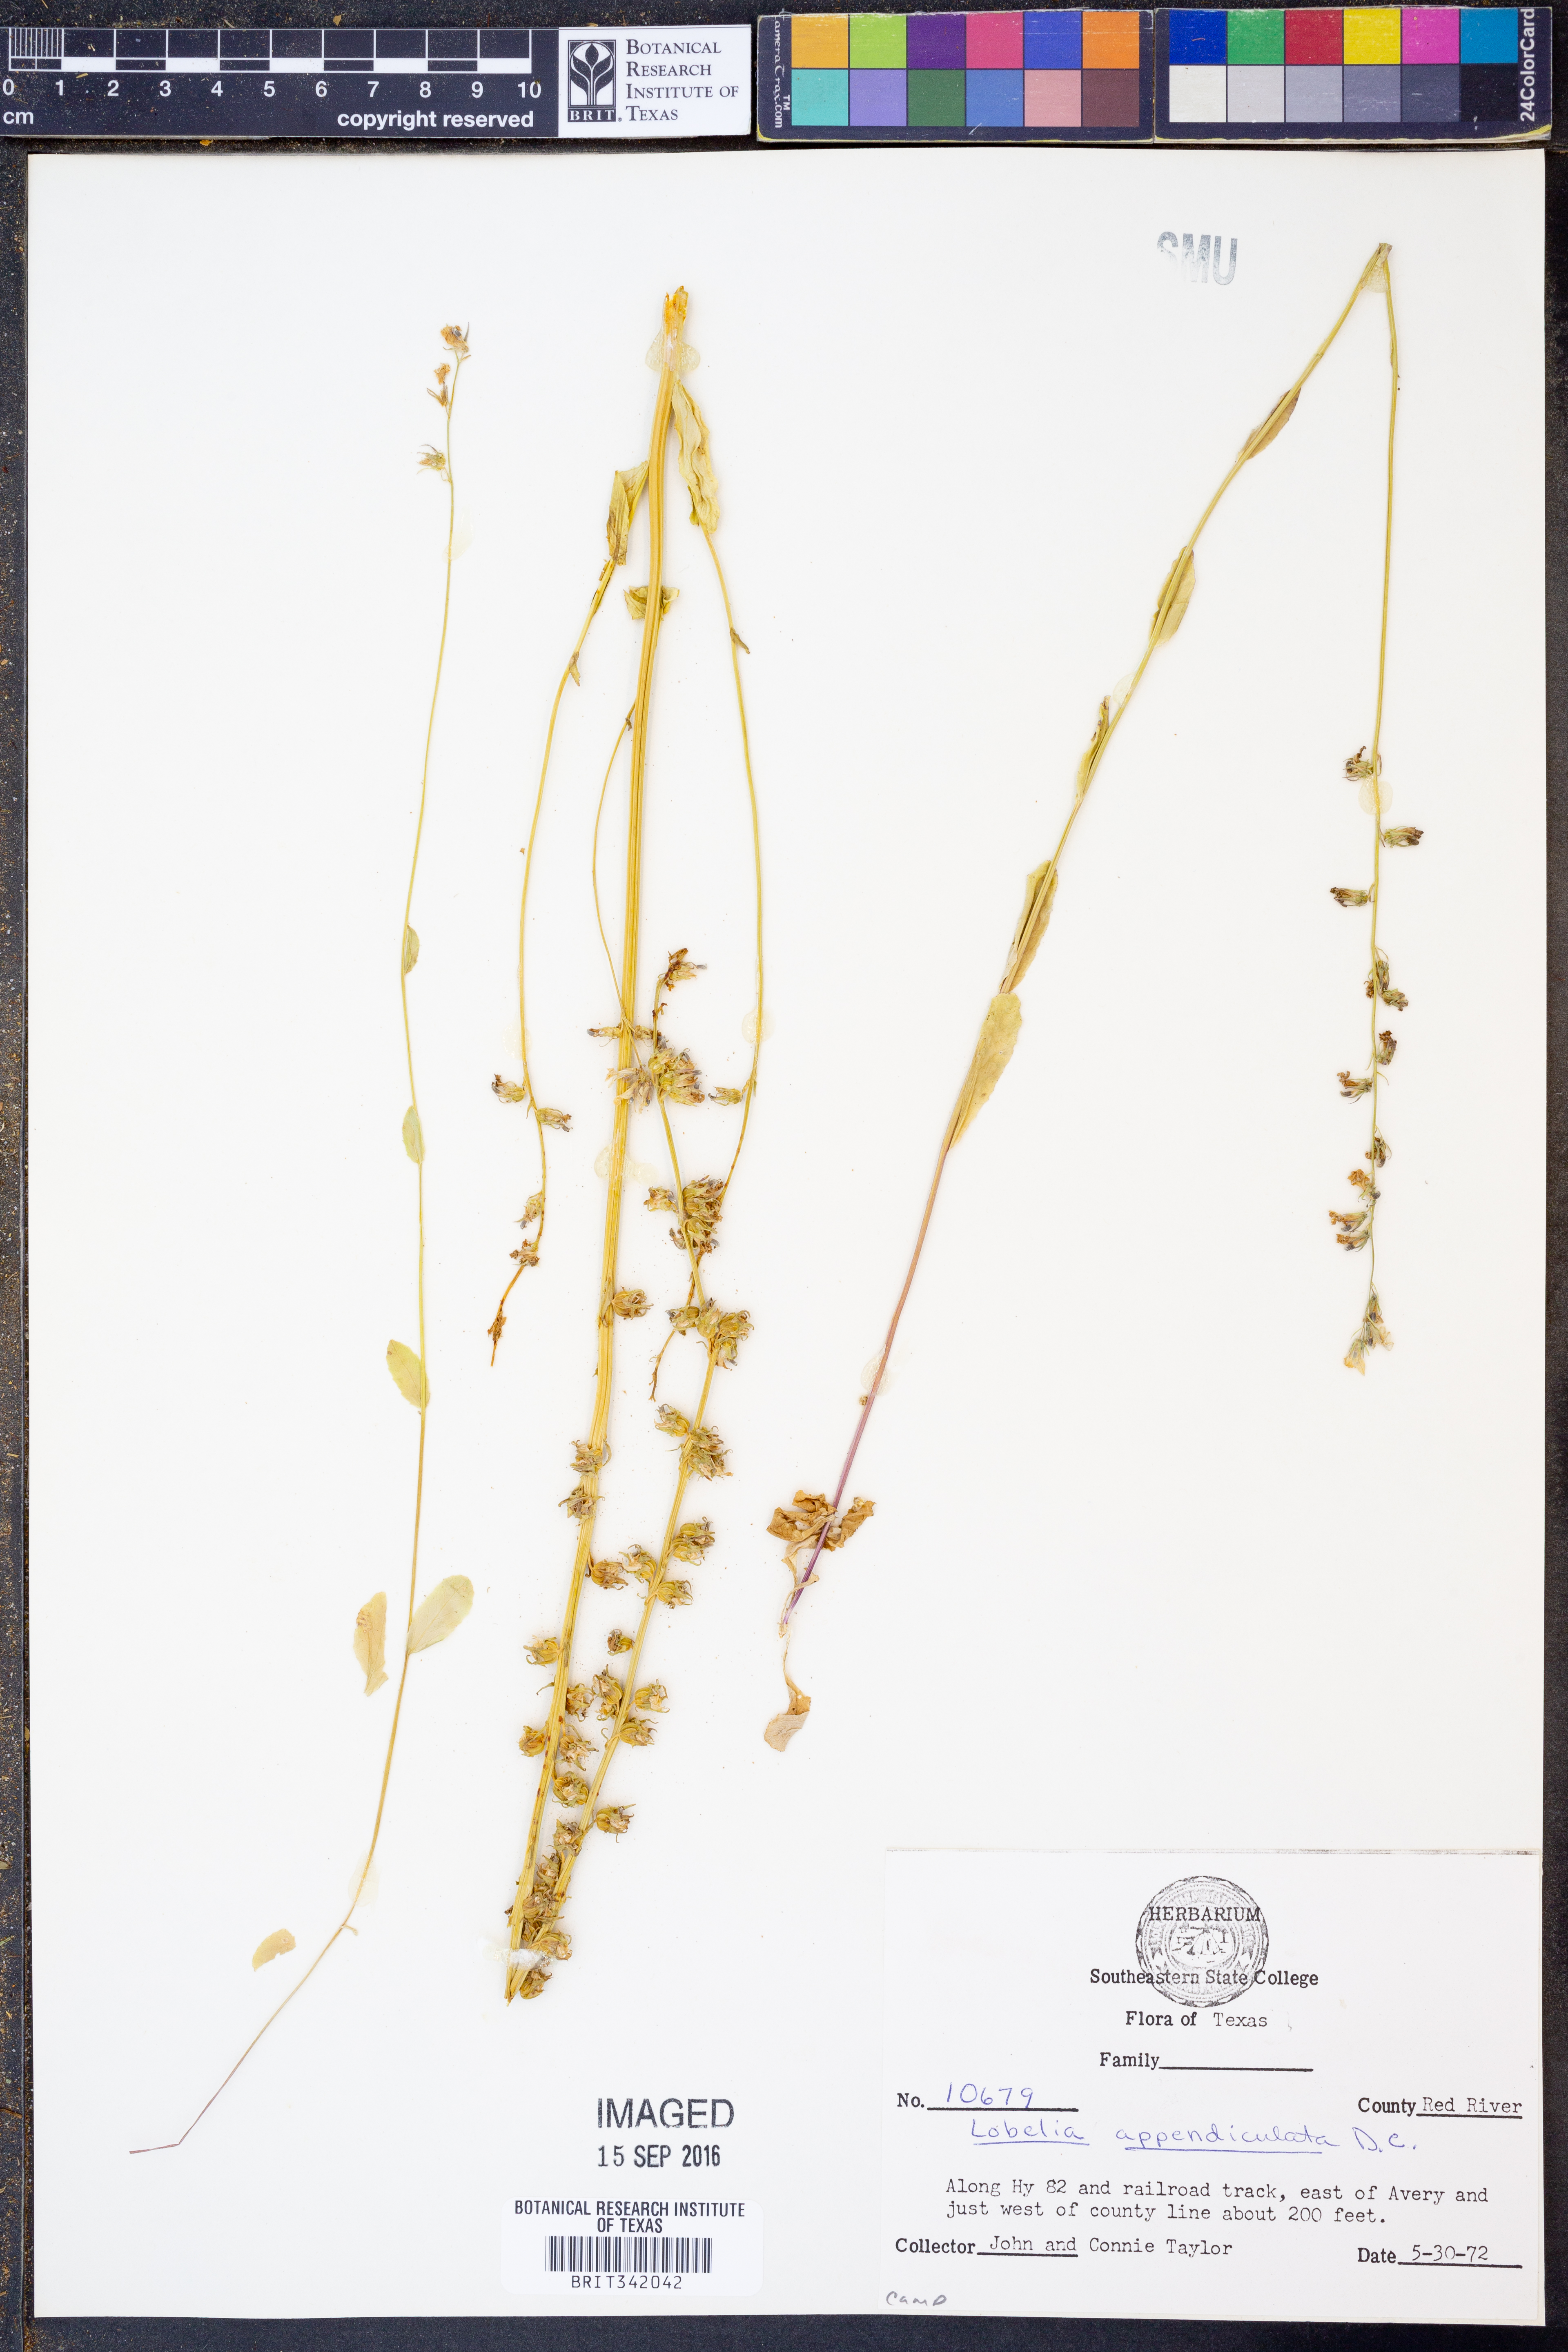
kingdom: Plantae
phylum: Tracheophyta
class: Magnoliopsida
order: Asterales
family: Campanulaceae
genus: Lobelia
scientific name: Lobelia appendiculata
